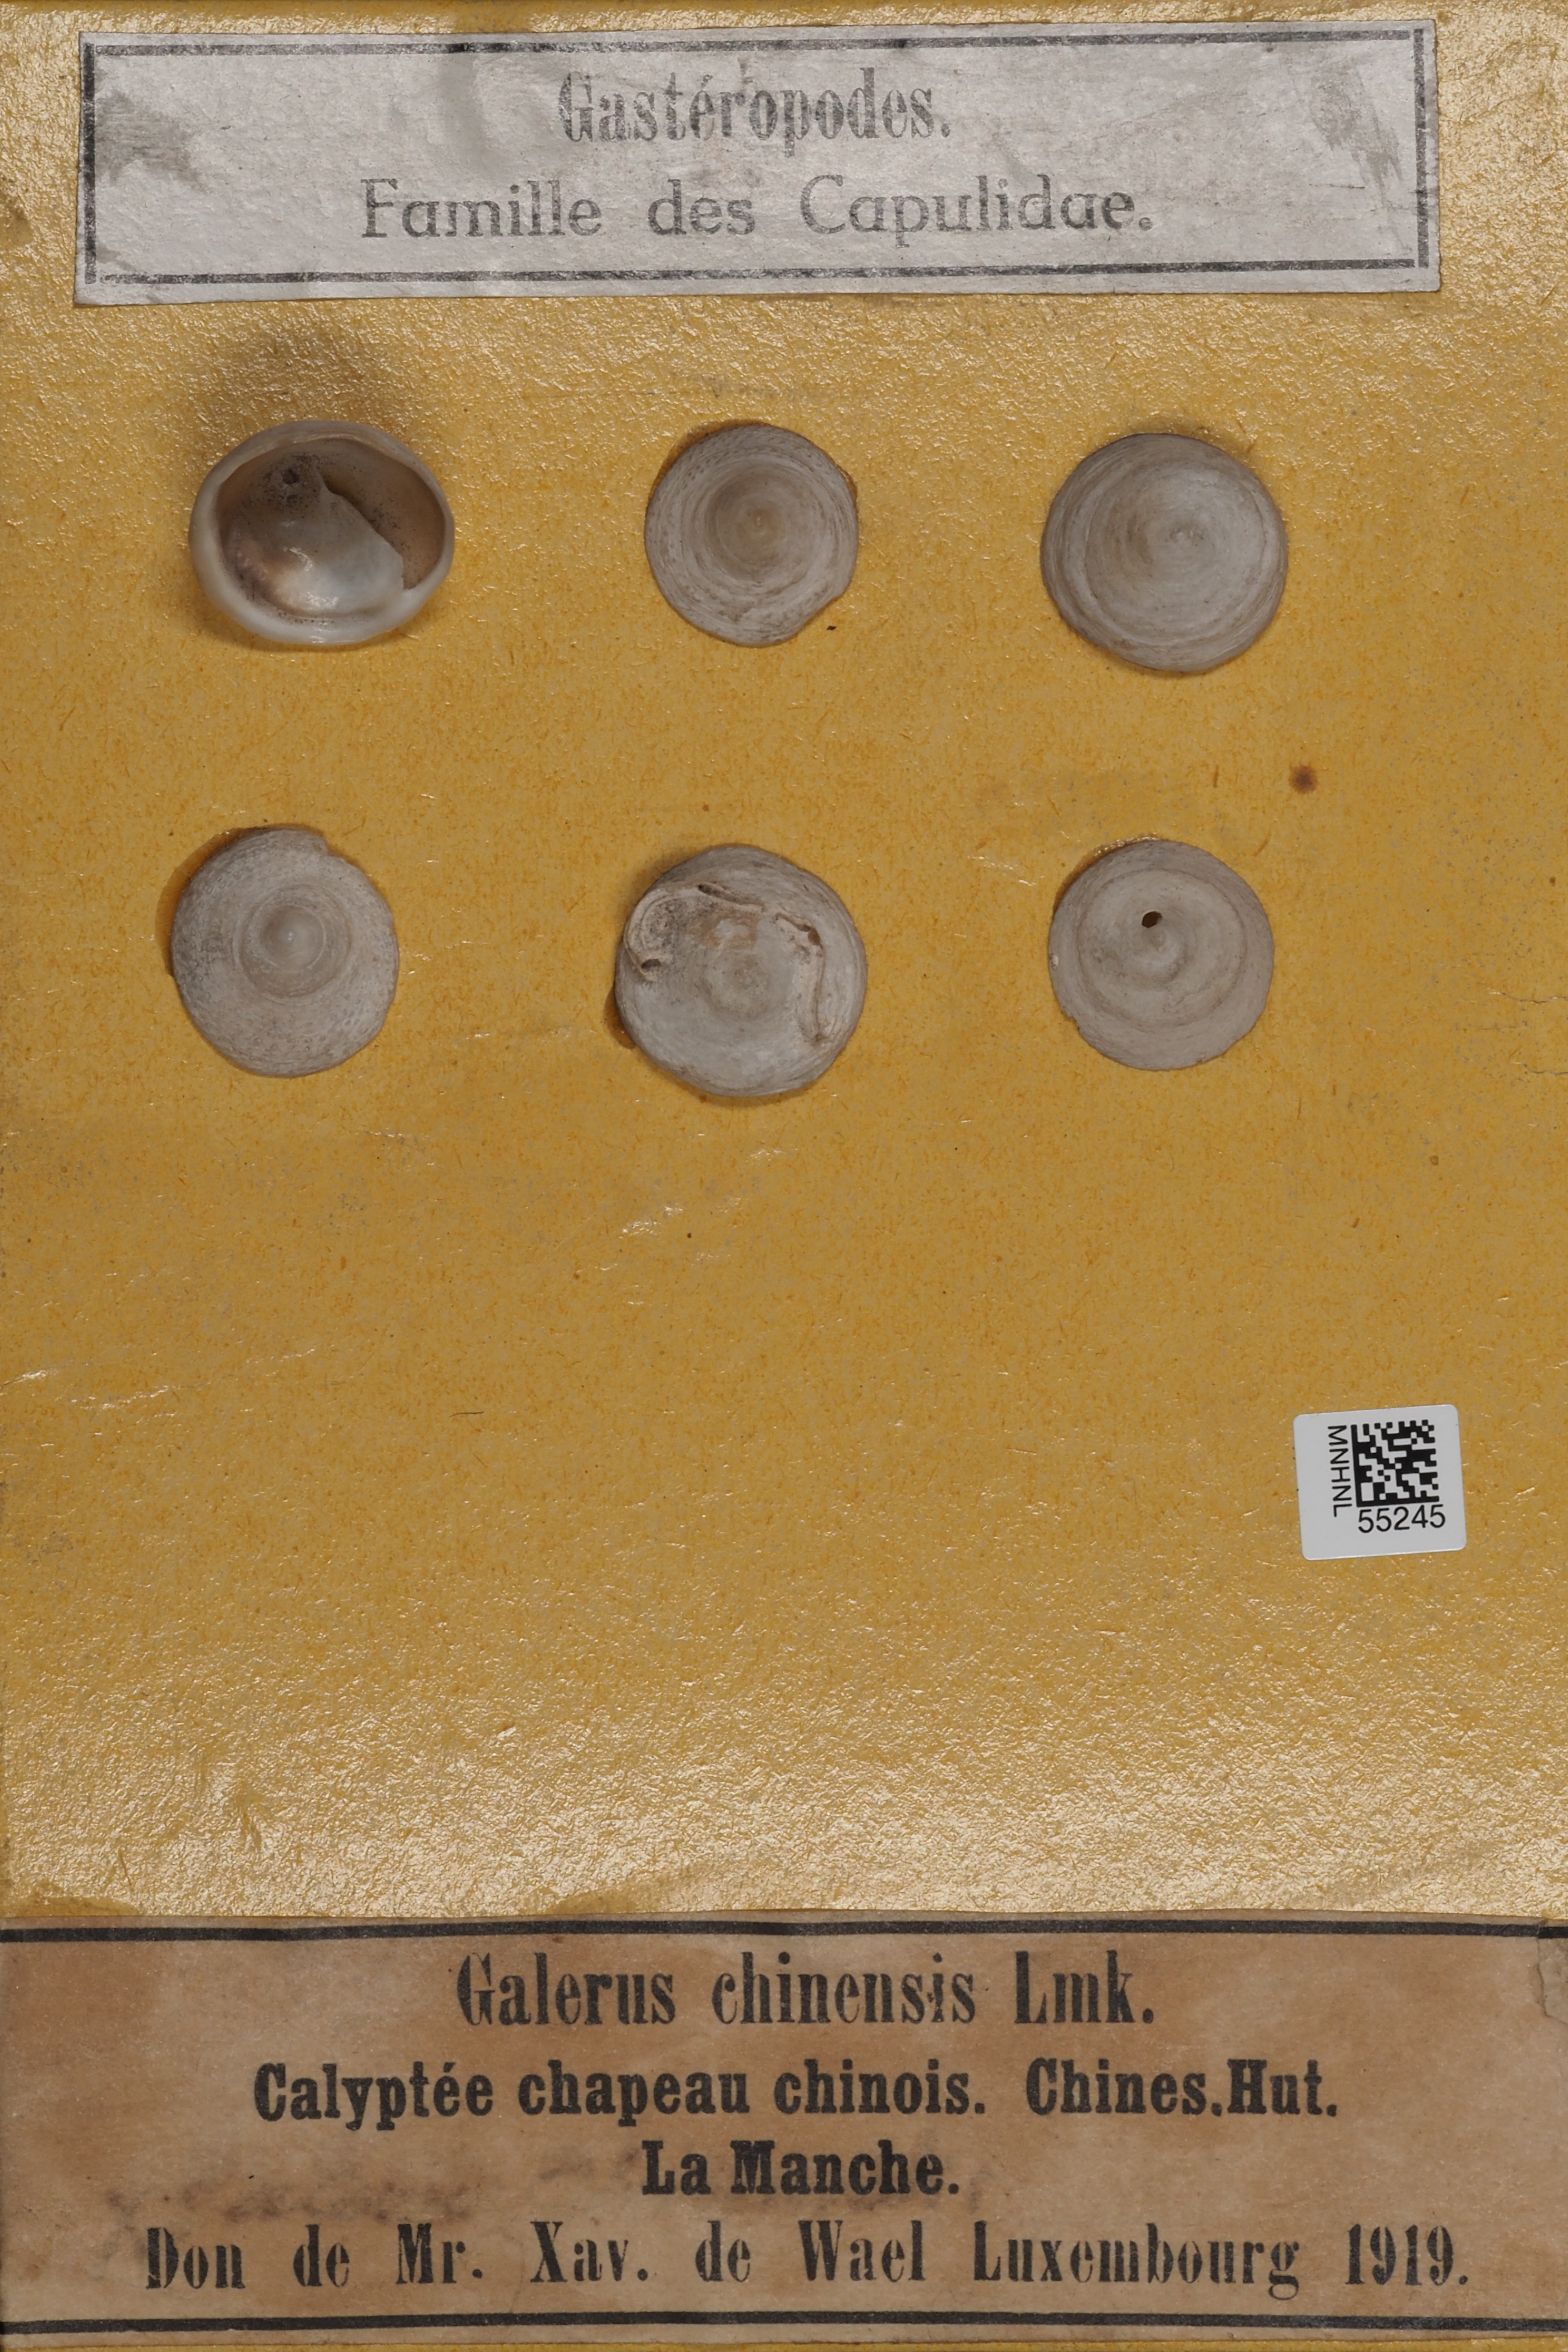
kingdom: Animalia
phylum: Mollusca
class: Gastropoda
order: Littorinimorpha
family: Calyptraeidae
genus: Calyptraea
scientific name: Calyptraea
